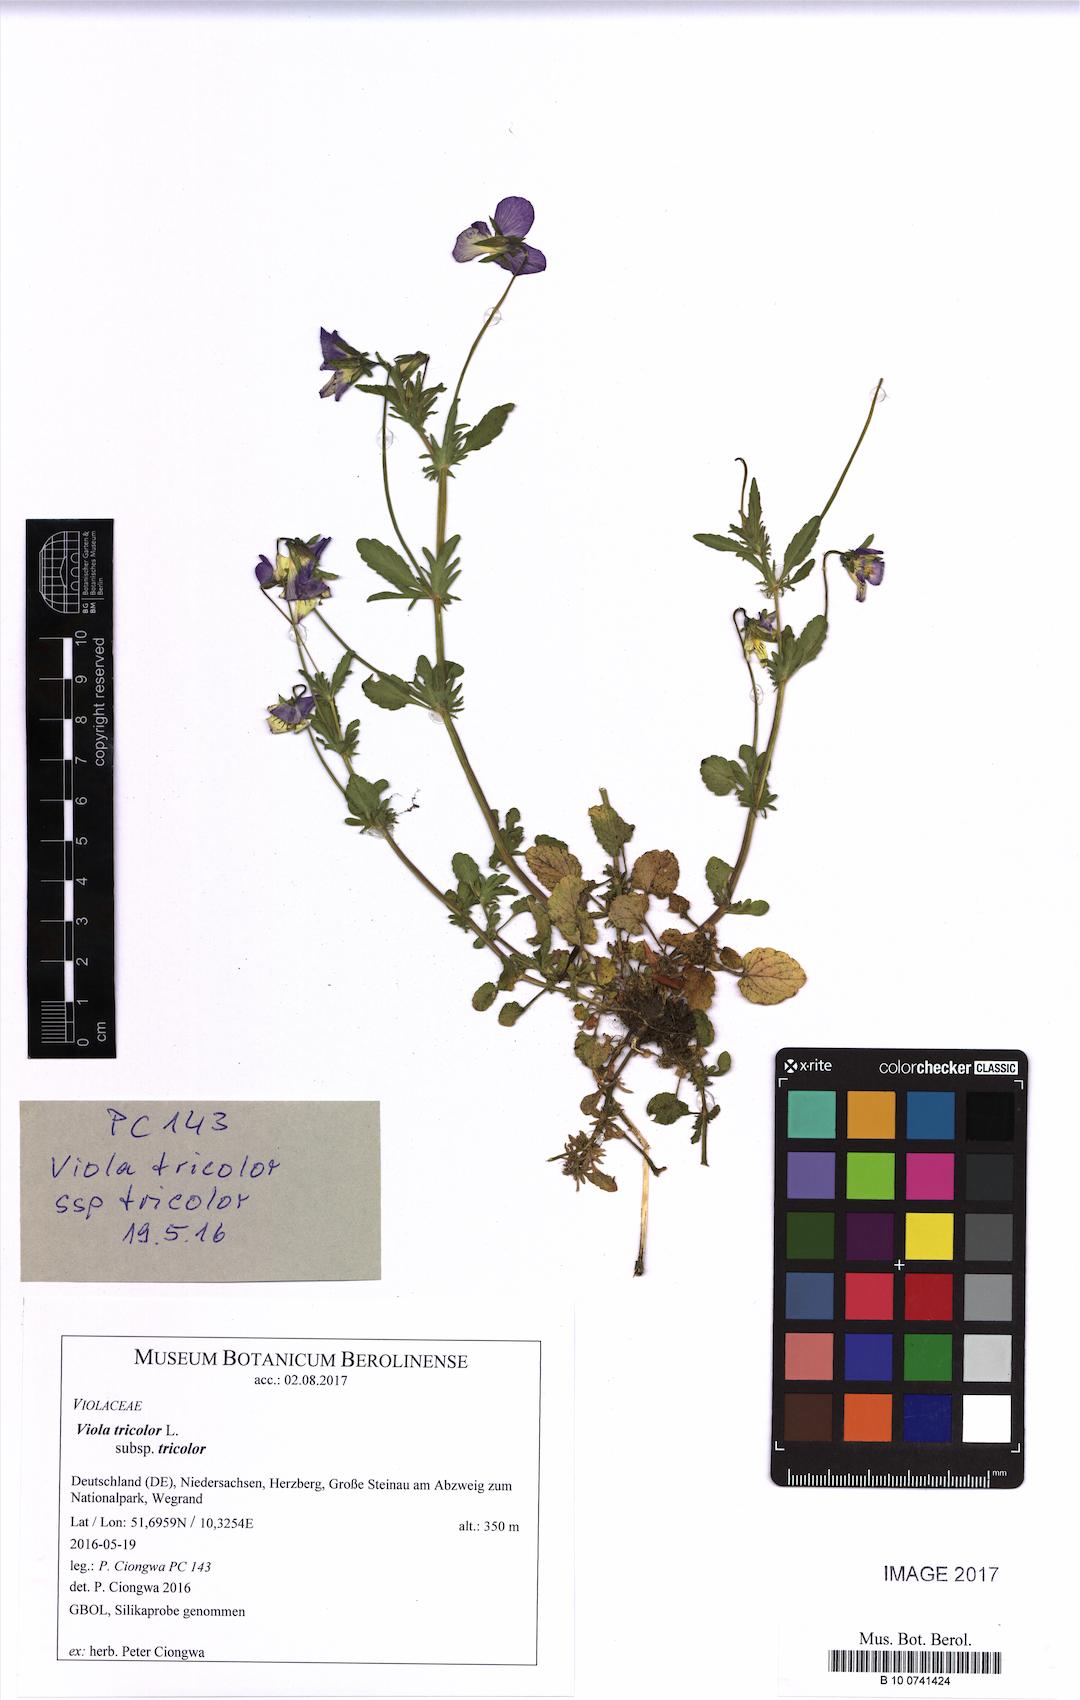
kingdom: Plantae
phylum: Tracheophyta
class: Magnoliopsida
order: Malpighiales
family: Violaceae
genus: Viola
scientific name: Viola tricolor
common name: Pansy
